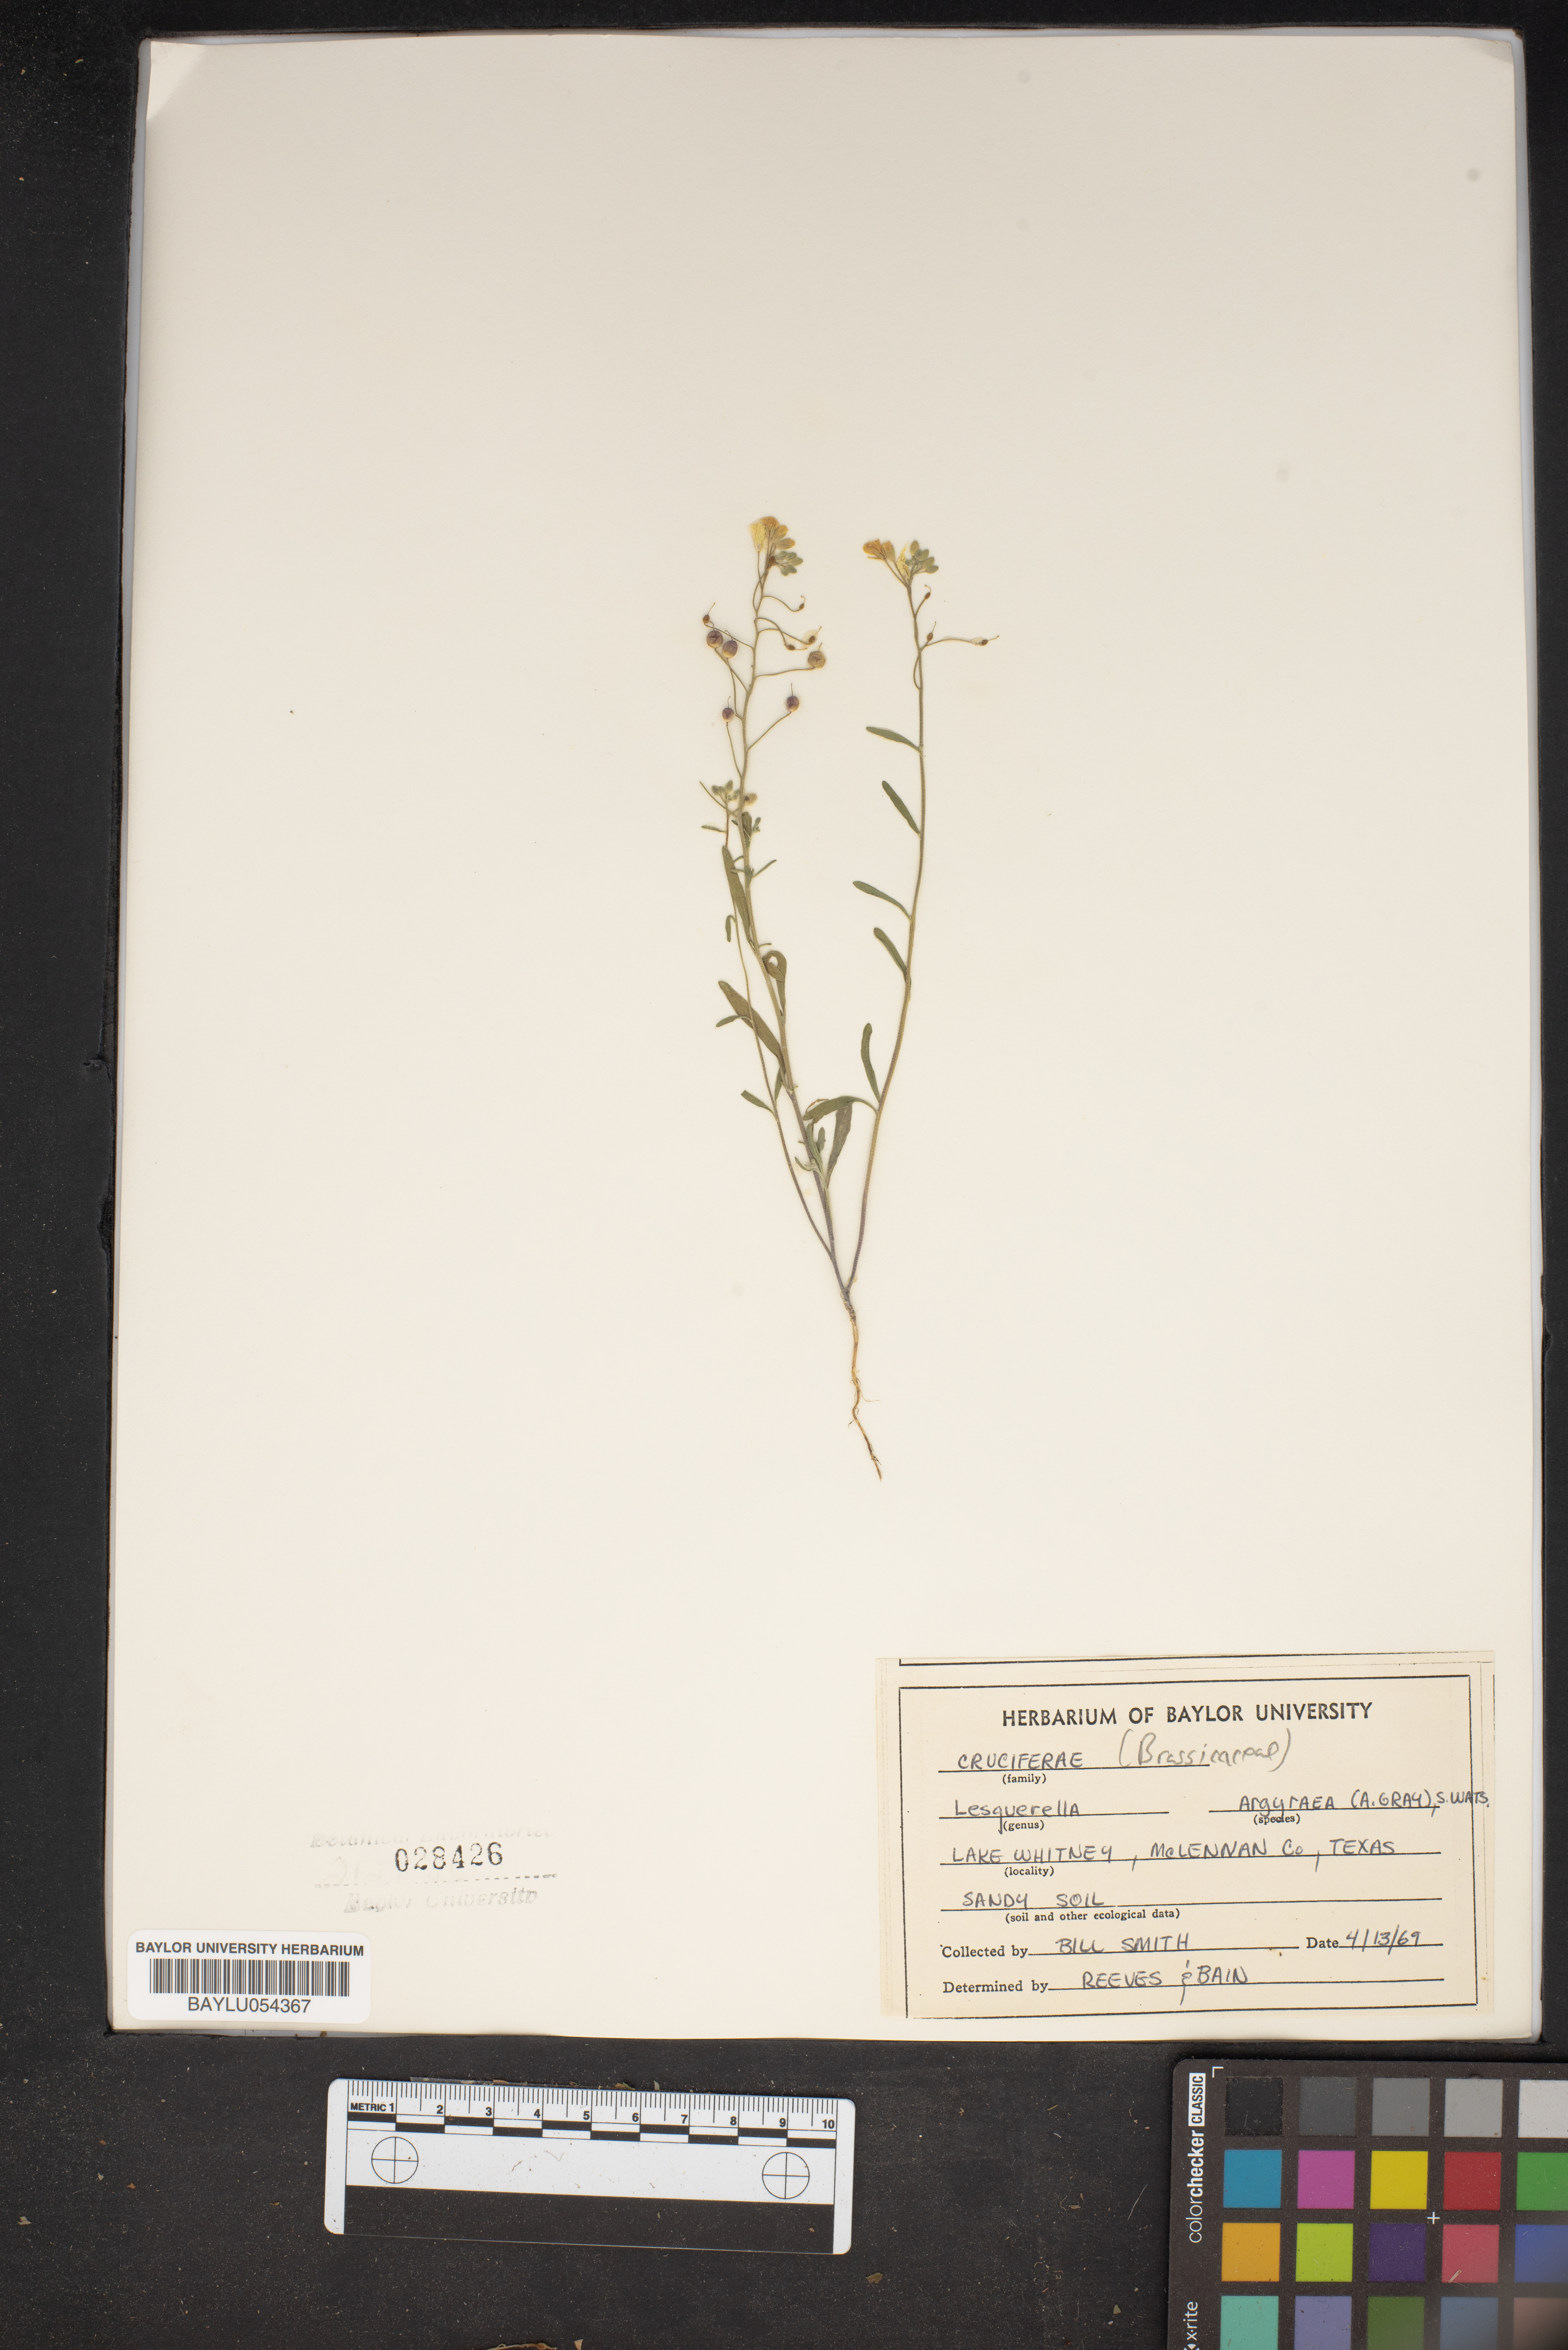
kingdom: Plantae
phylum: Tracheophyta
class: Magnoliopsida
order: Brassicales
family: Brassicaceae
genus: Physaria
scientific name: Physaria argyraea
